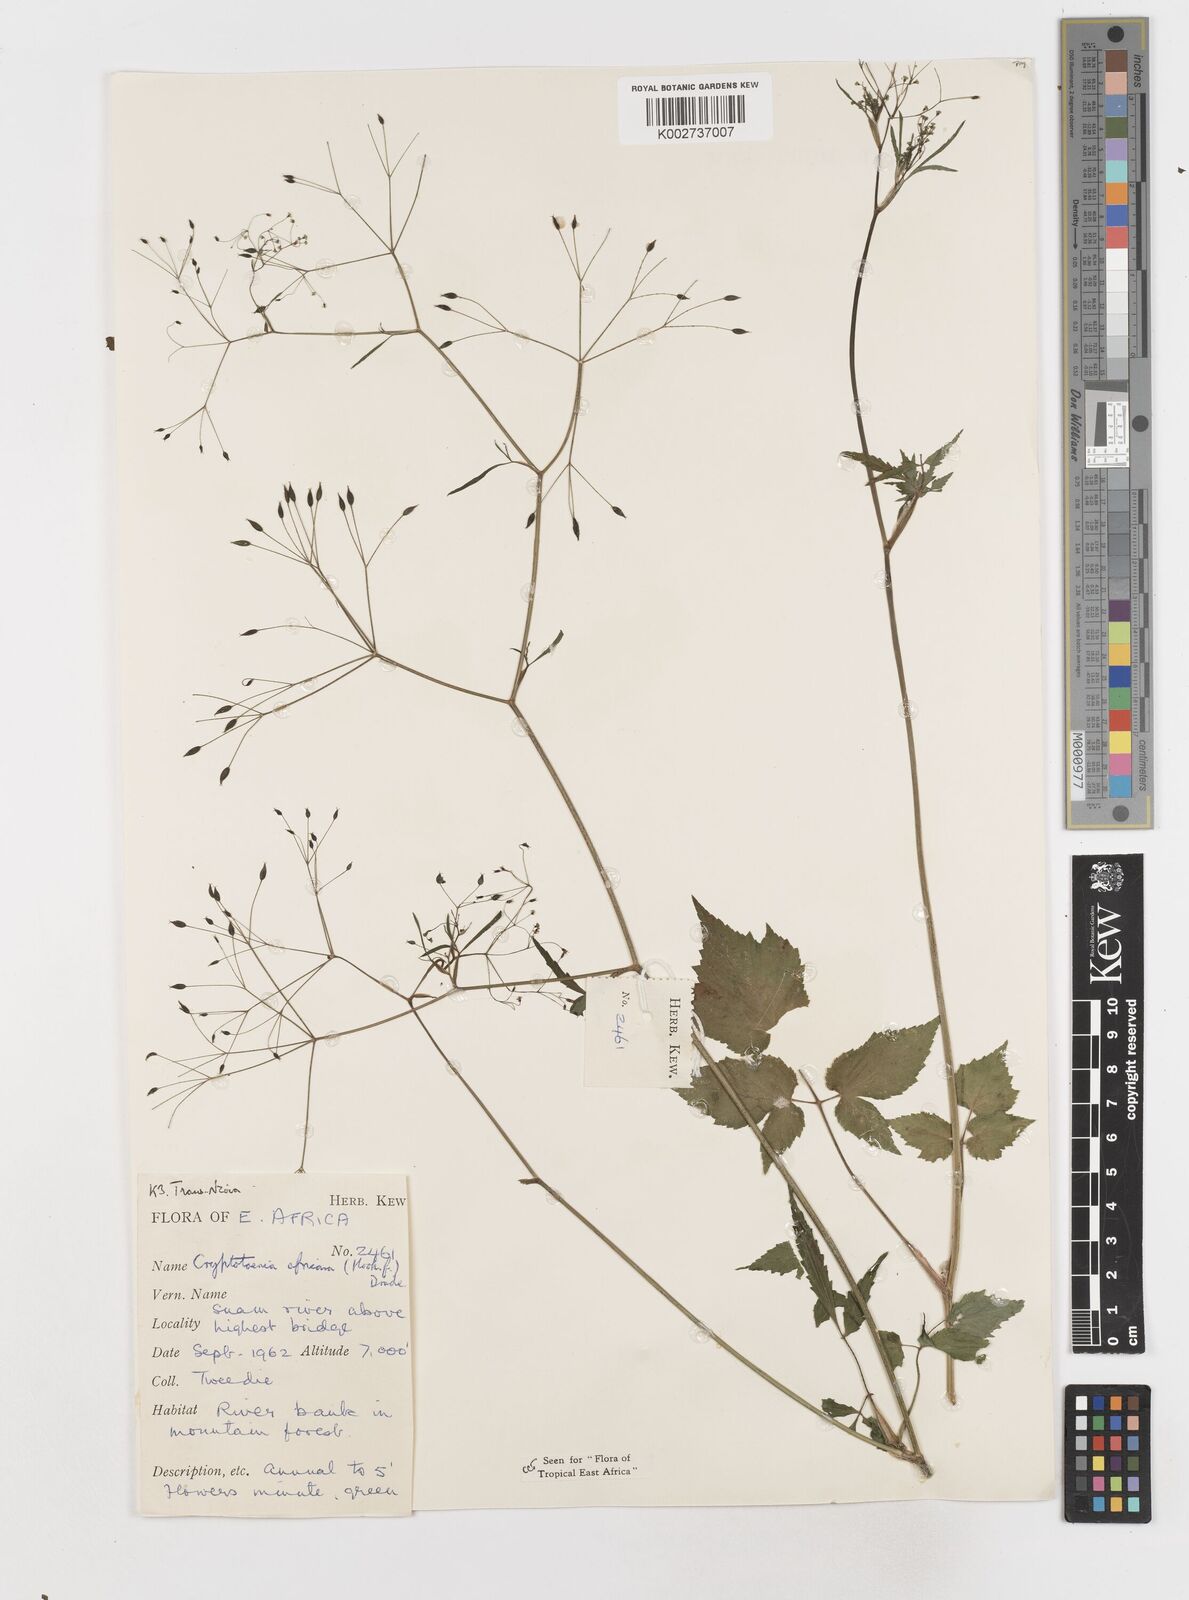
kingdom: Plantae
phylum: Tracheophyta
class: Magnoliopsida
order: Apiales
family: Apiaceae
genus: Cryptotaenia
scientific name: Cryptotaenia africana
